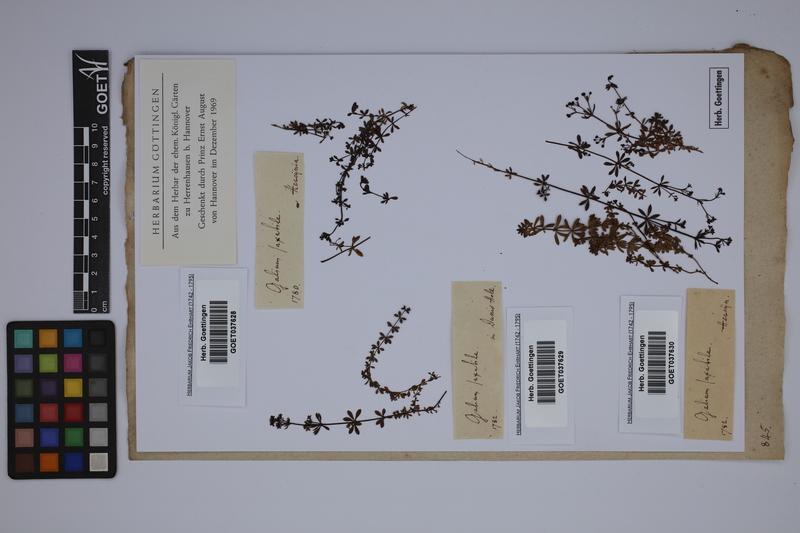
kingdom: Plantae
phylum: Tracheophyta
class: Magnoliopsida
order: Gentianales
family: Rubiaceae
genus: Galium
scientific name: Galium saxatile
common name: Heath bedstraw
